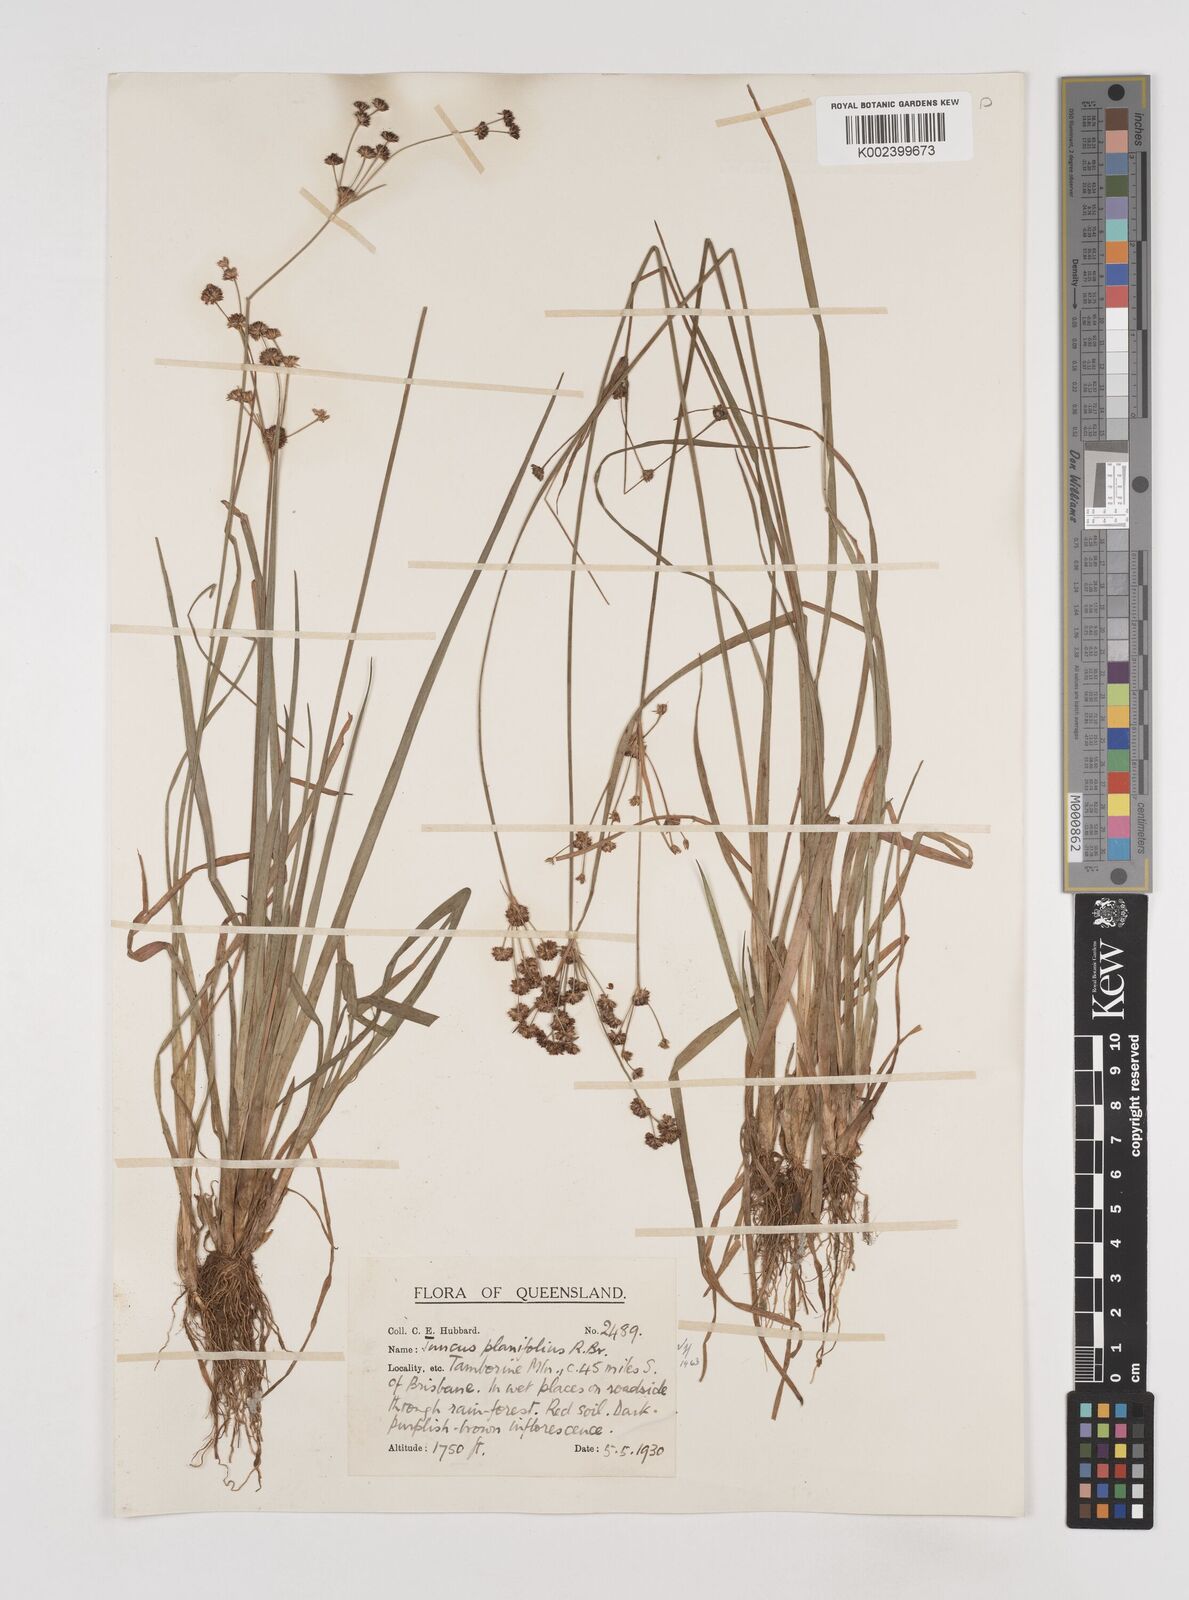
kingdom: Plantae
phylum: Tracheophyta
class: Liliopsida
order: Poales
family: Juncaceae
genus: Juncus
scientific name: Juncus planifolius
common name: Broadleaf rush
